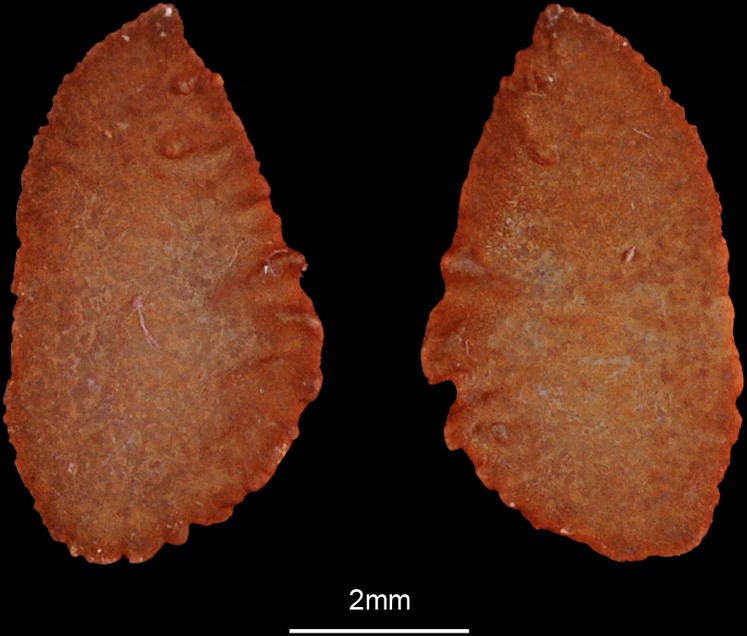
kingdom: Animalia
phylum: Chordata
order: Beloniformes
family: Hemiramphidae
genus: Rhynchorhamphus
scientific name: Rhynchorhamphus georgii
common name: Long billed half beak
